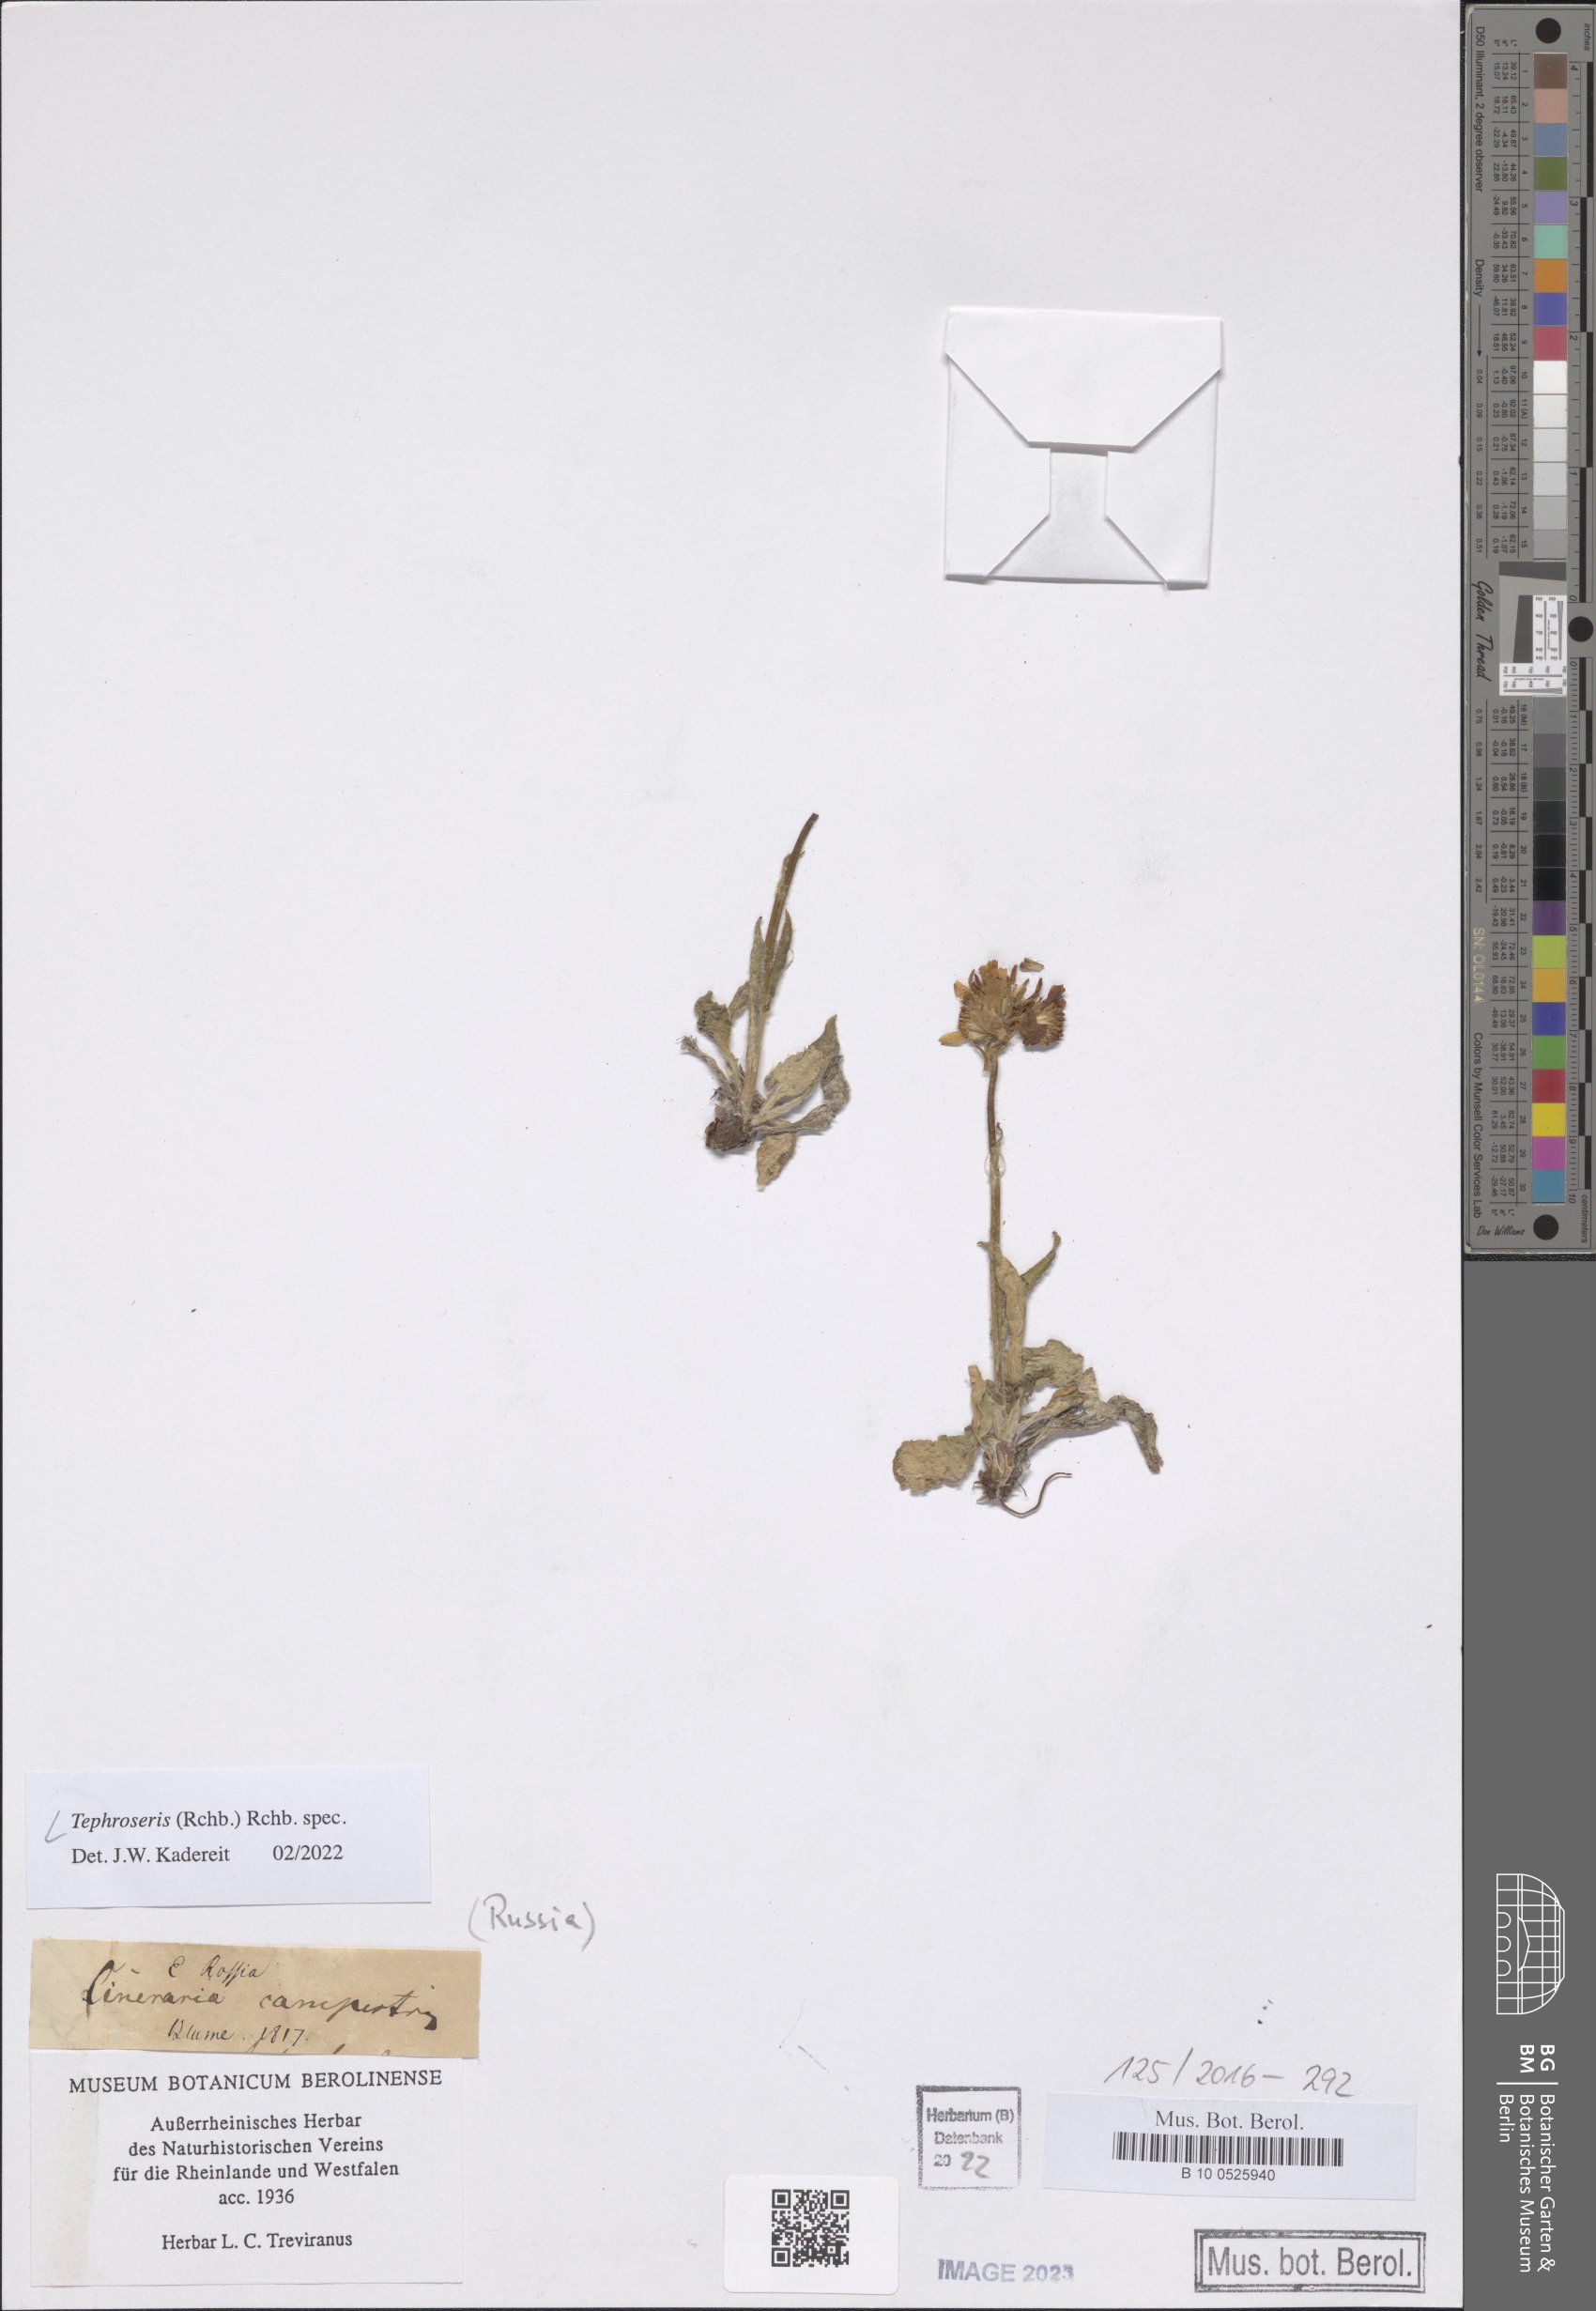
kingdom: Plantae
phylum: Tracheophyta
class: Magnoliopsida
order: Asterales
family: Asteraceae
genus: Tephroseris
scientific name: Tephroseris
